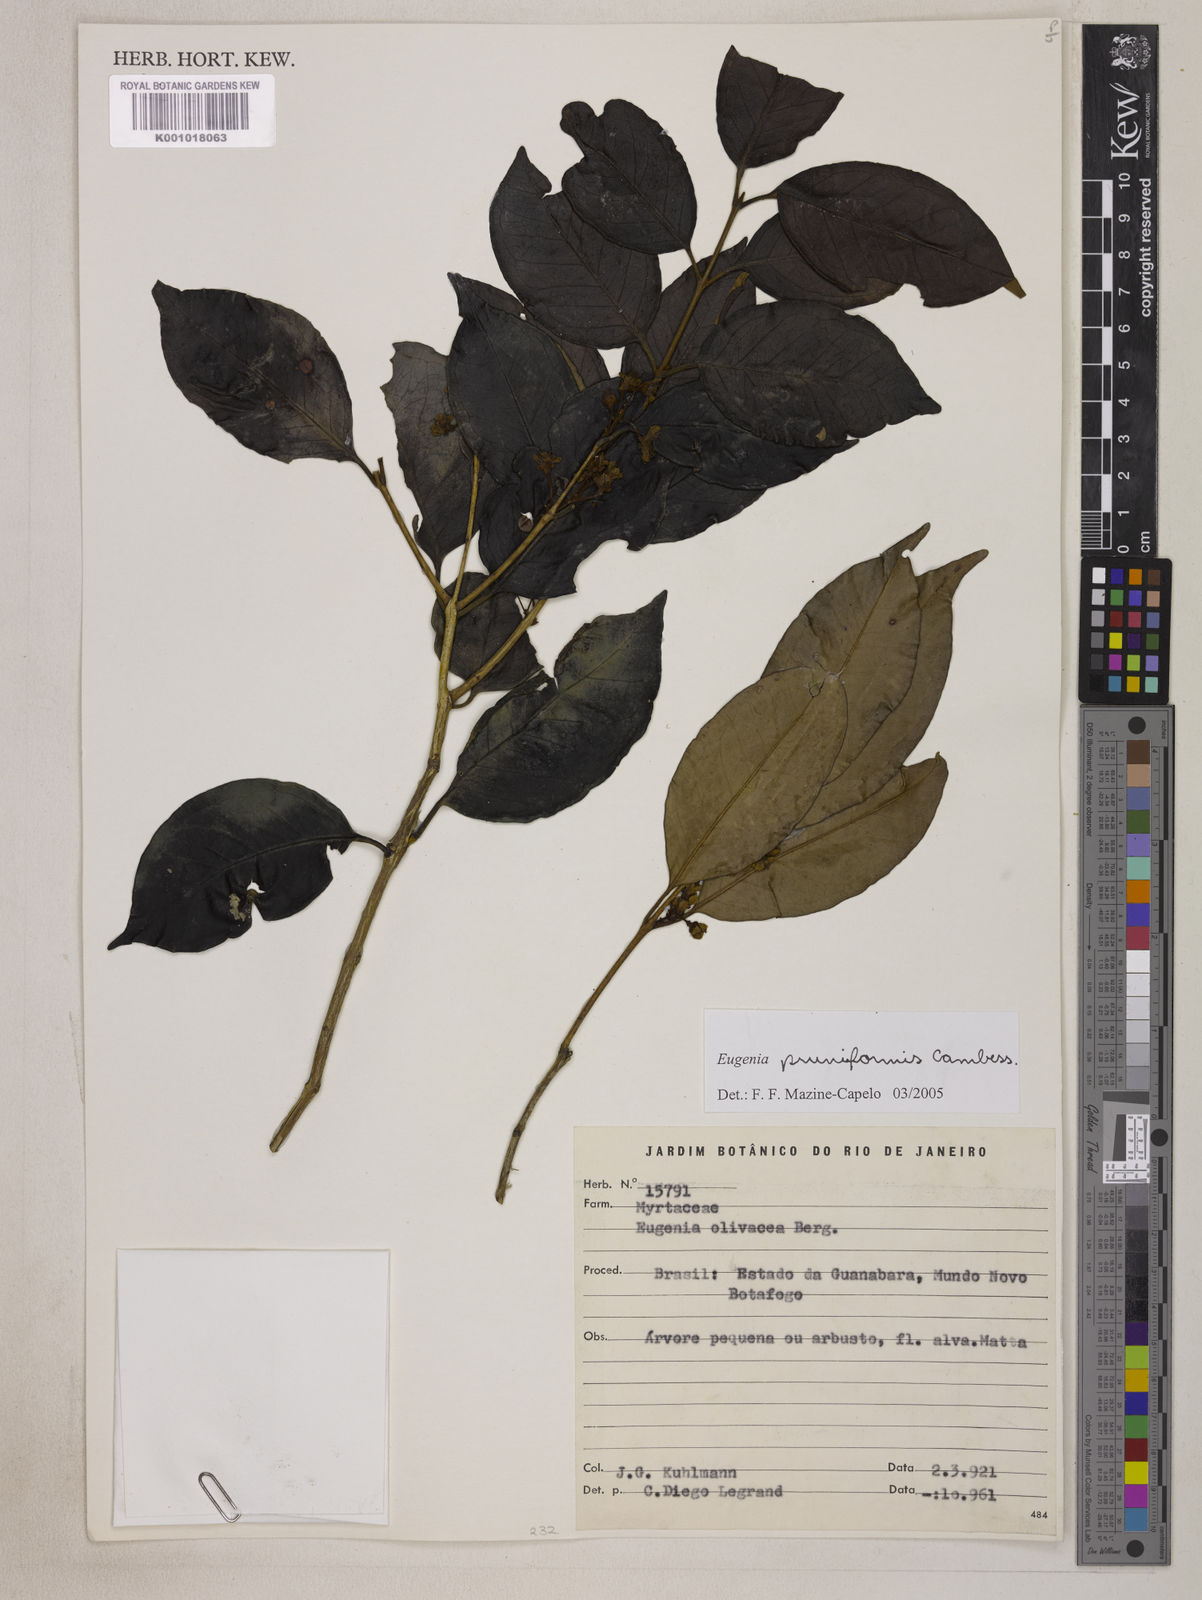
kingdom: Plantae
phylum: Tracheophyta
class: Magnoliopsida
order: Myrtales
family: Myrtaceae
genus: Eugenia
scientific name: Eugenia pruniformis
